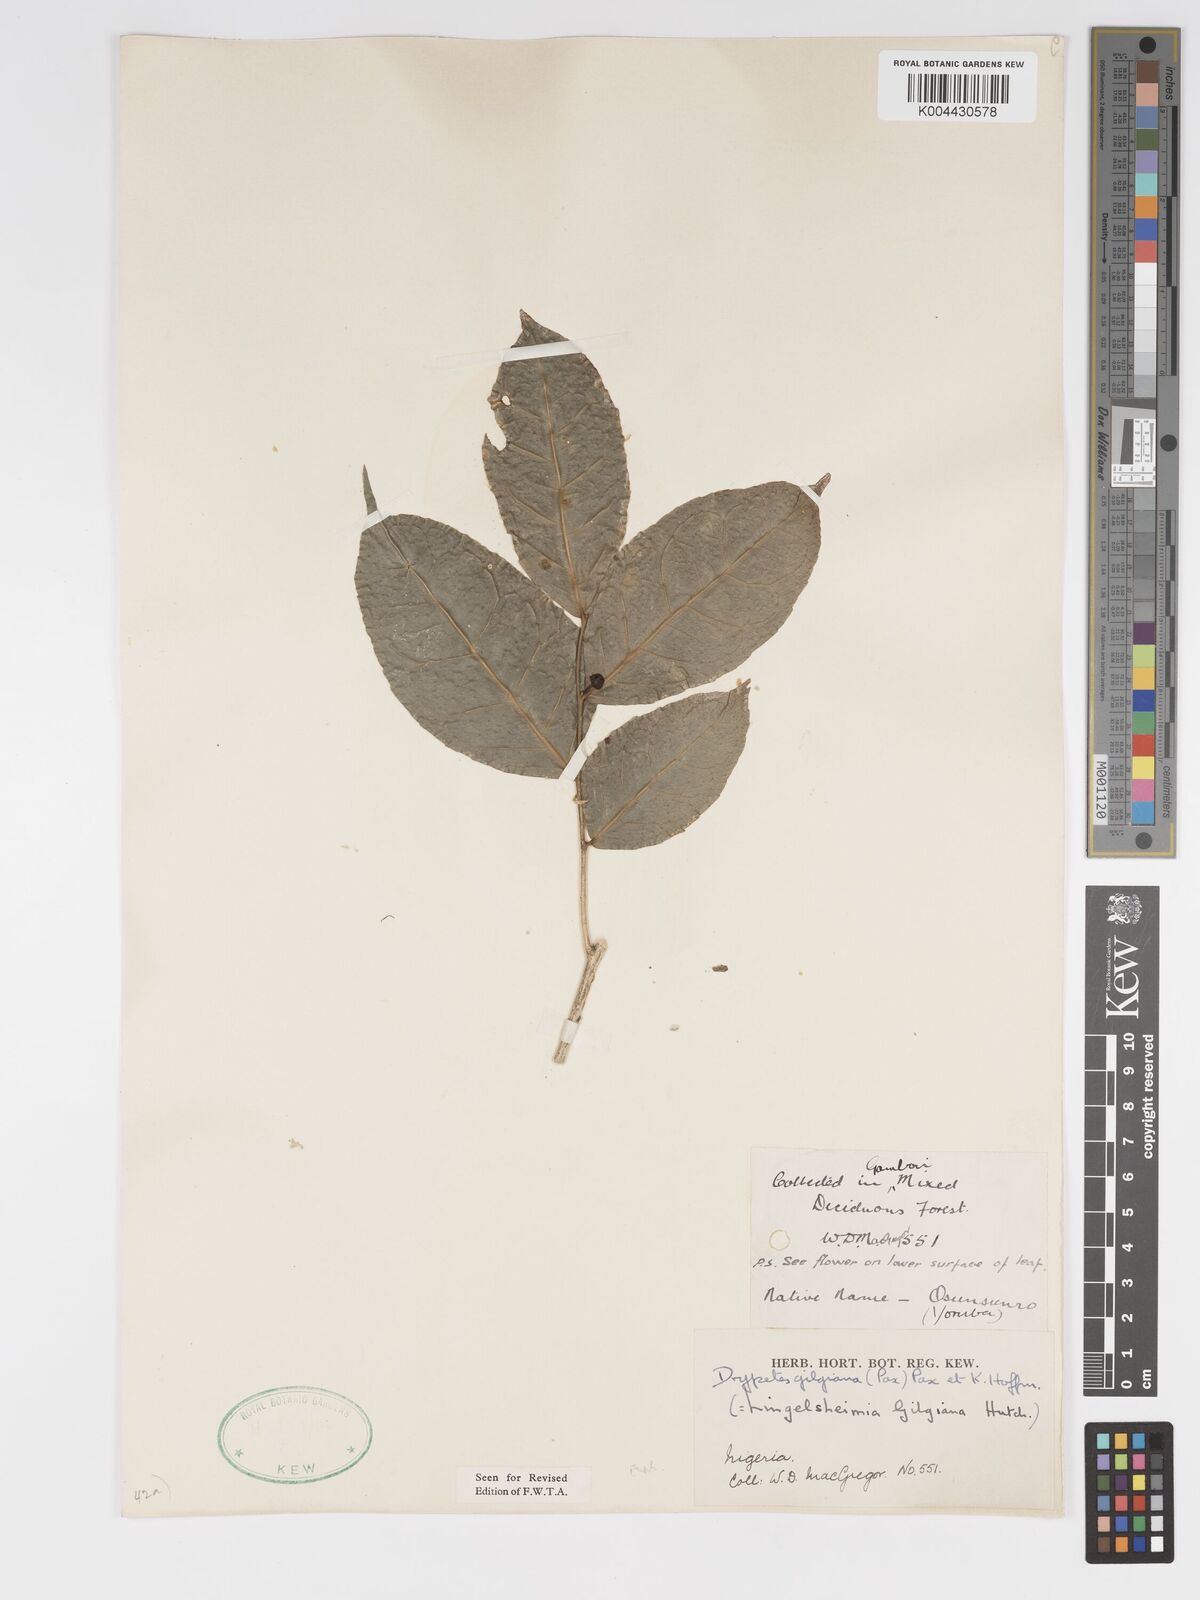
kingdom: Plantae
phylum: Tracheophyta
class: Magnoliopsida
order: Malpighiales
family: Putranjivaceae
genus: Drypetes
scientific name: Drypetes gilgiana
